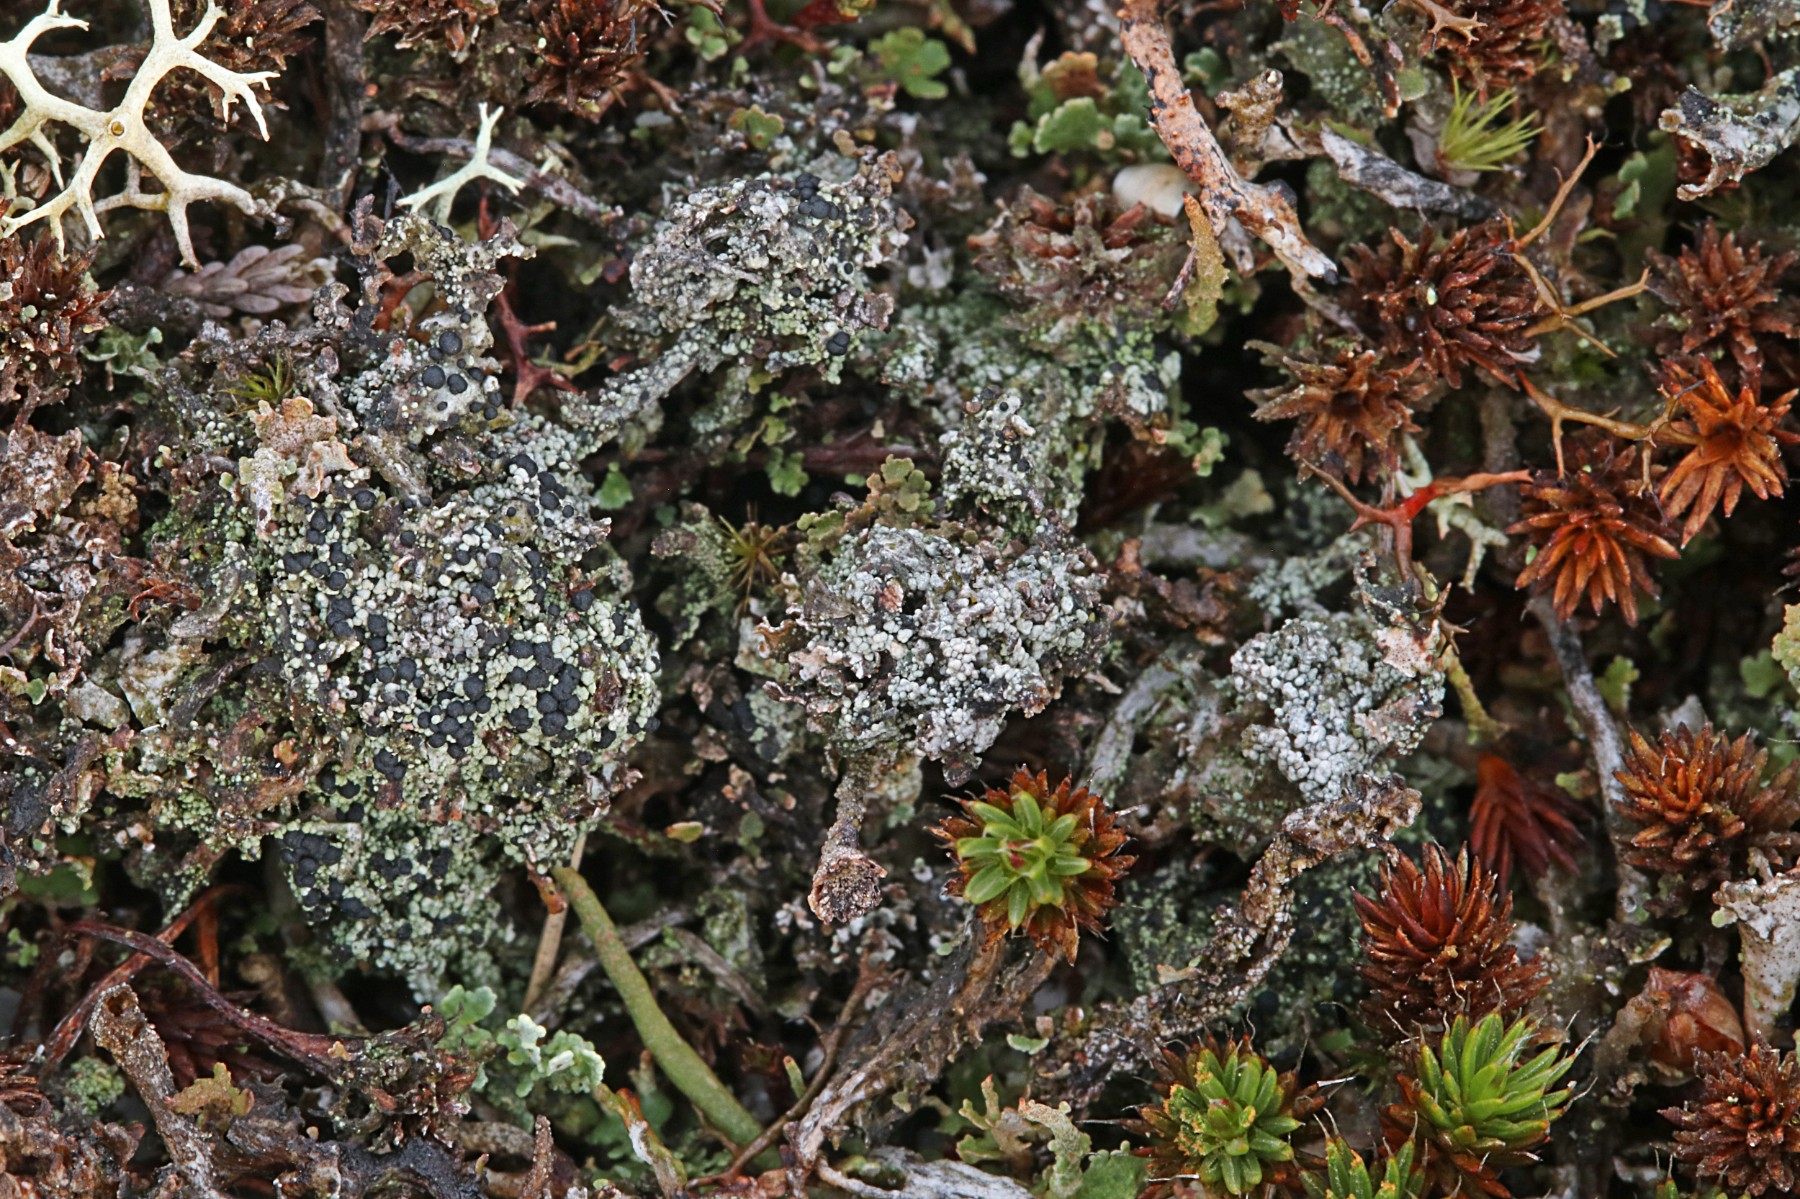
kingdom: Fungi
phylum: Ascomycota
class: Lecanoromycetes
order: Lecanorales
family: Byssolomataceae
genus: Micarea
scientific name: Micarea lignaria
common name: tørve-knaplav
